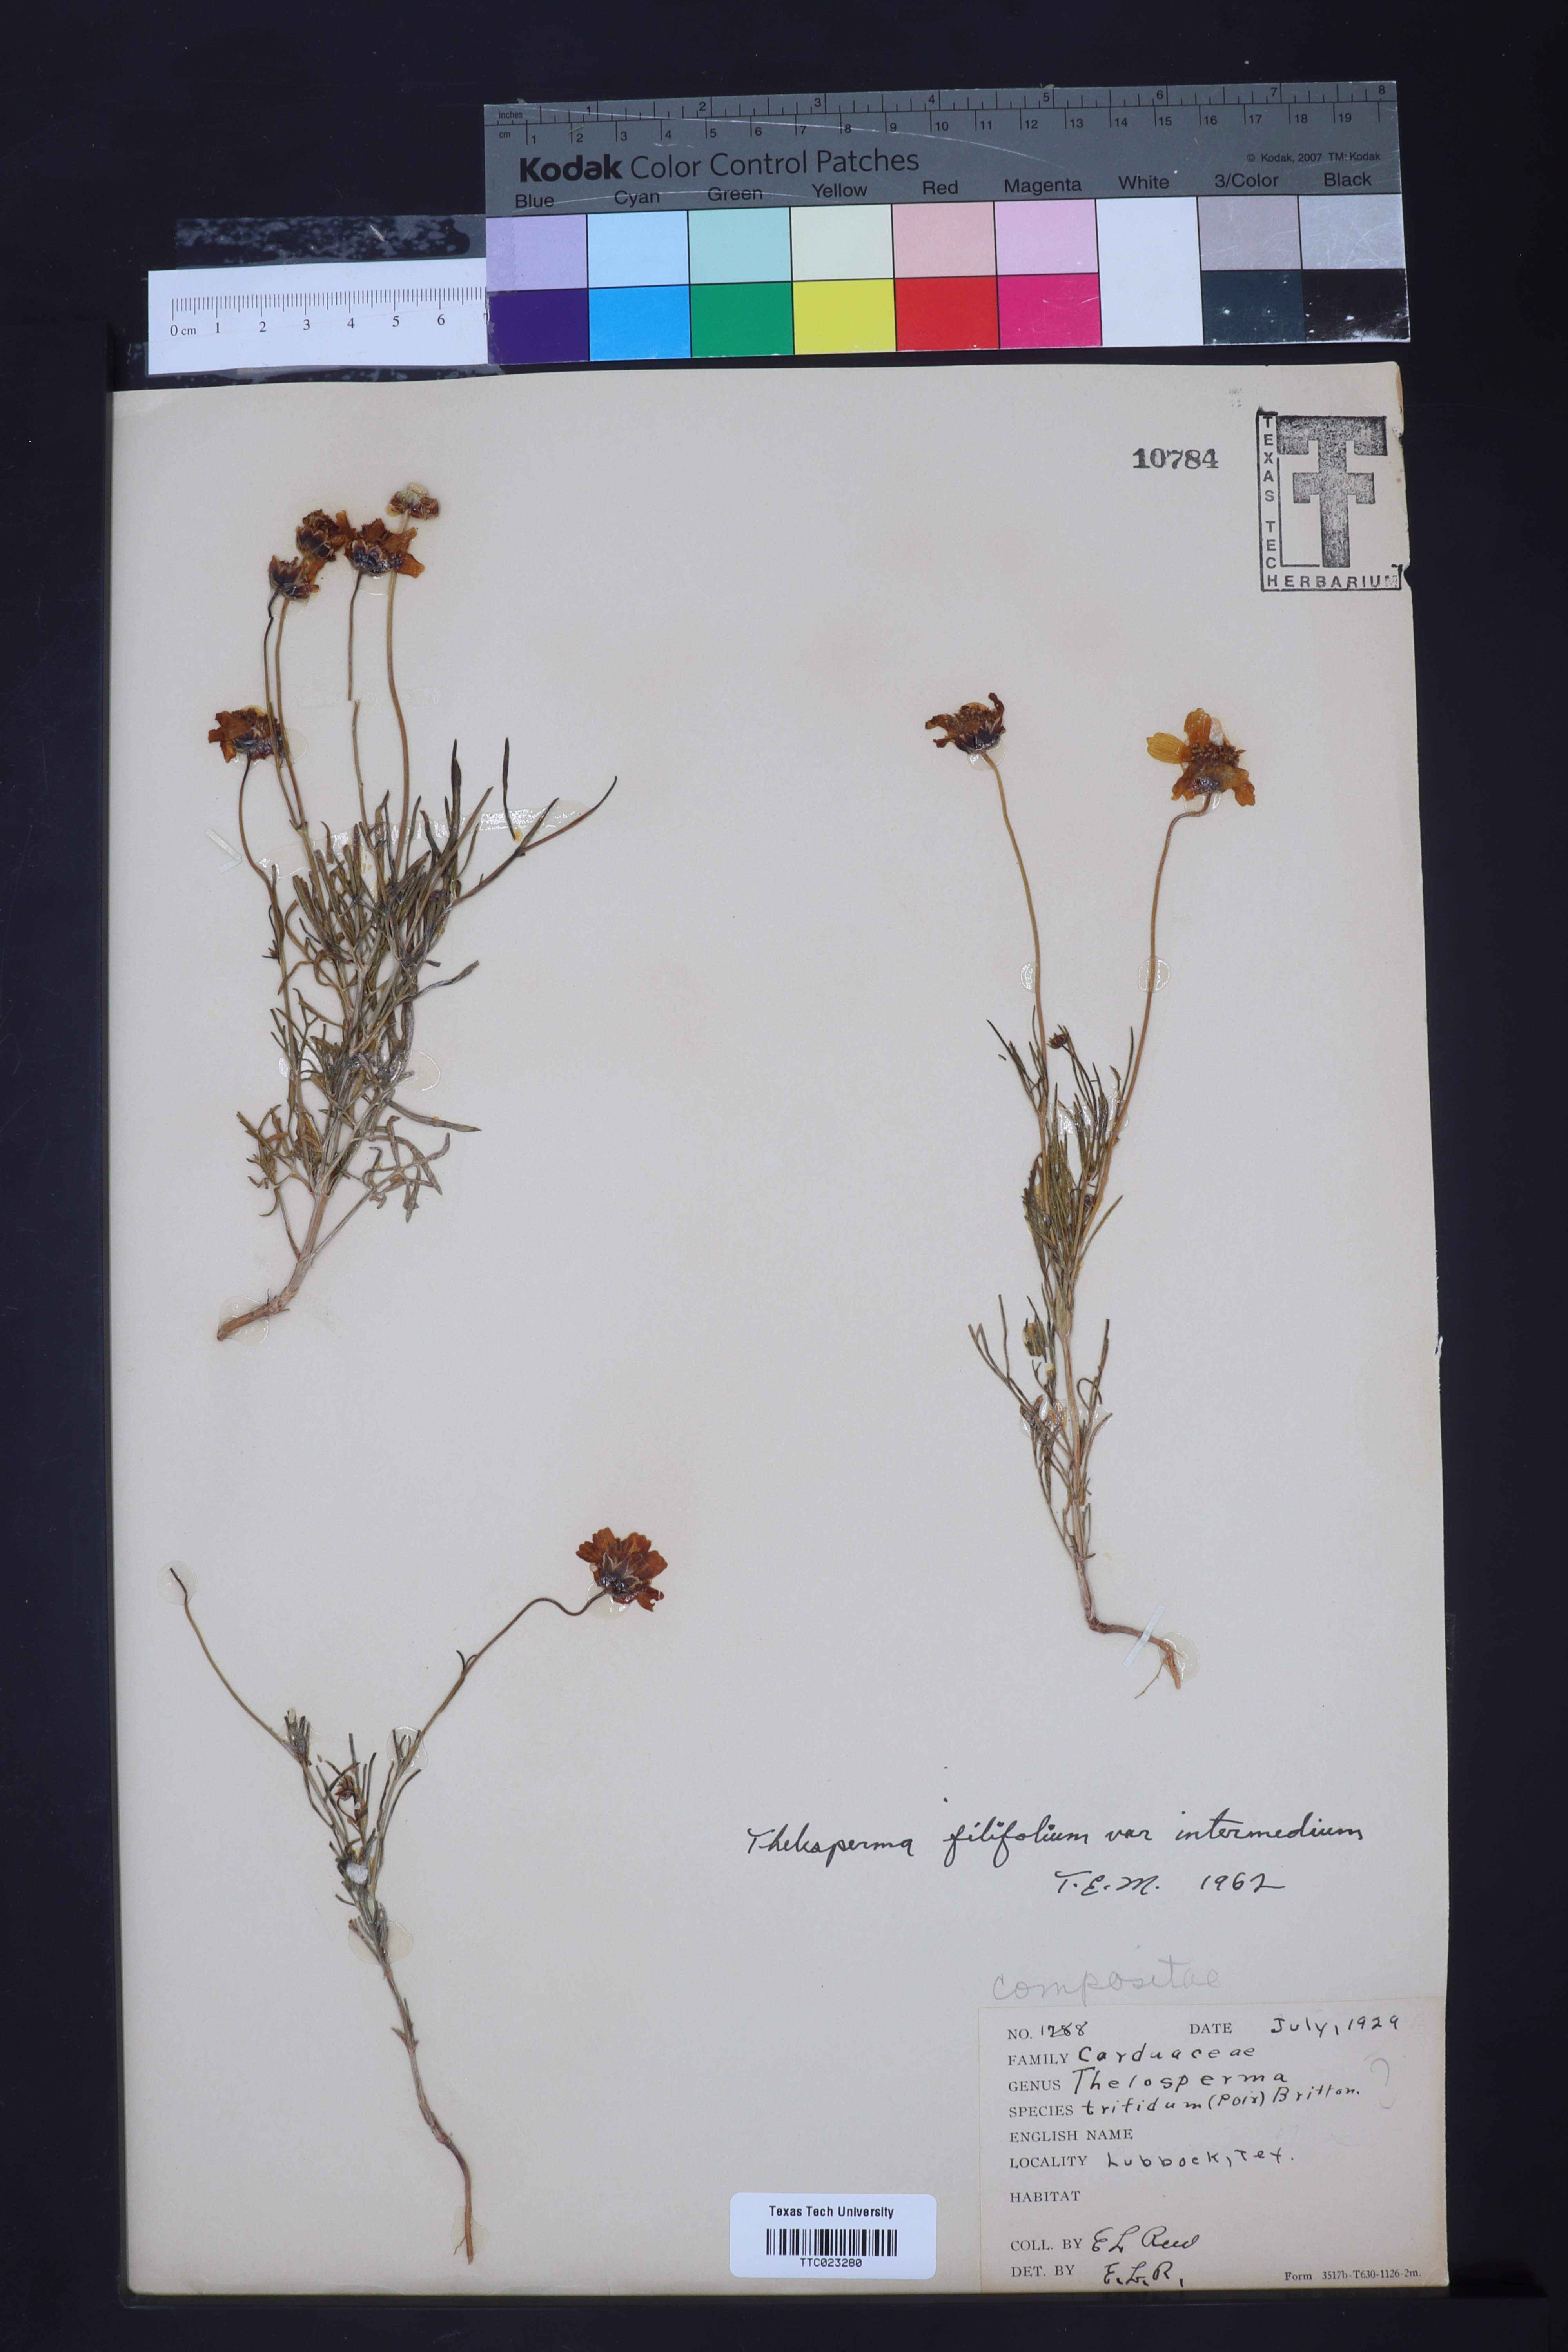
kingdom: Plantae
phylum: Tracheophyta
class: Magnoliopsida
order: Asterales
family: Asteraceae
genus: Thelesperma
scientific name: Thelesperma filifolium
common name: Stiff greenthread
